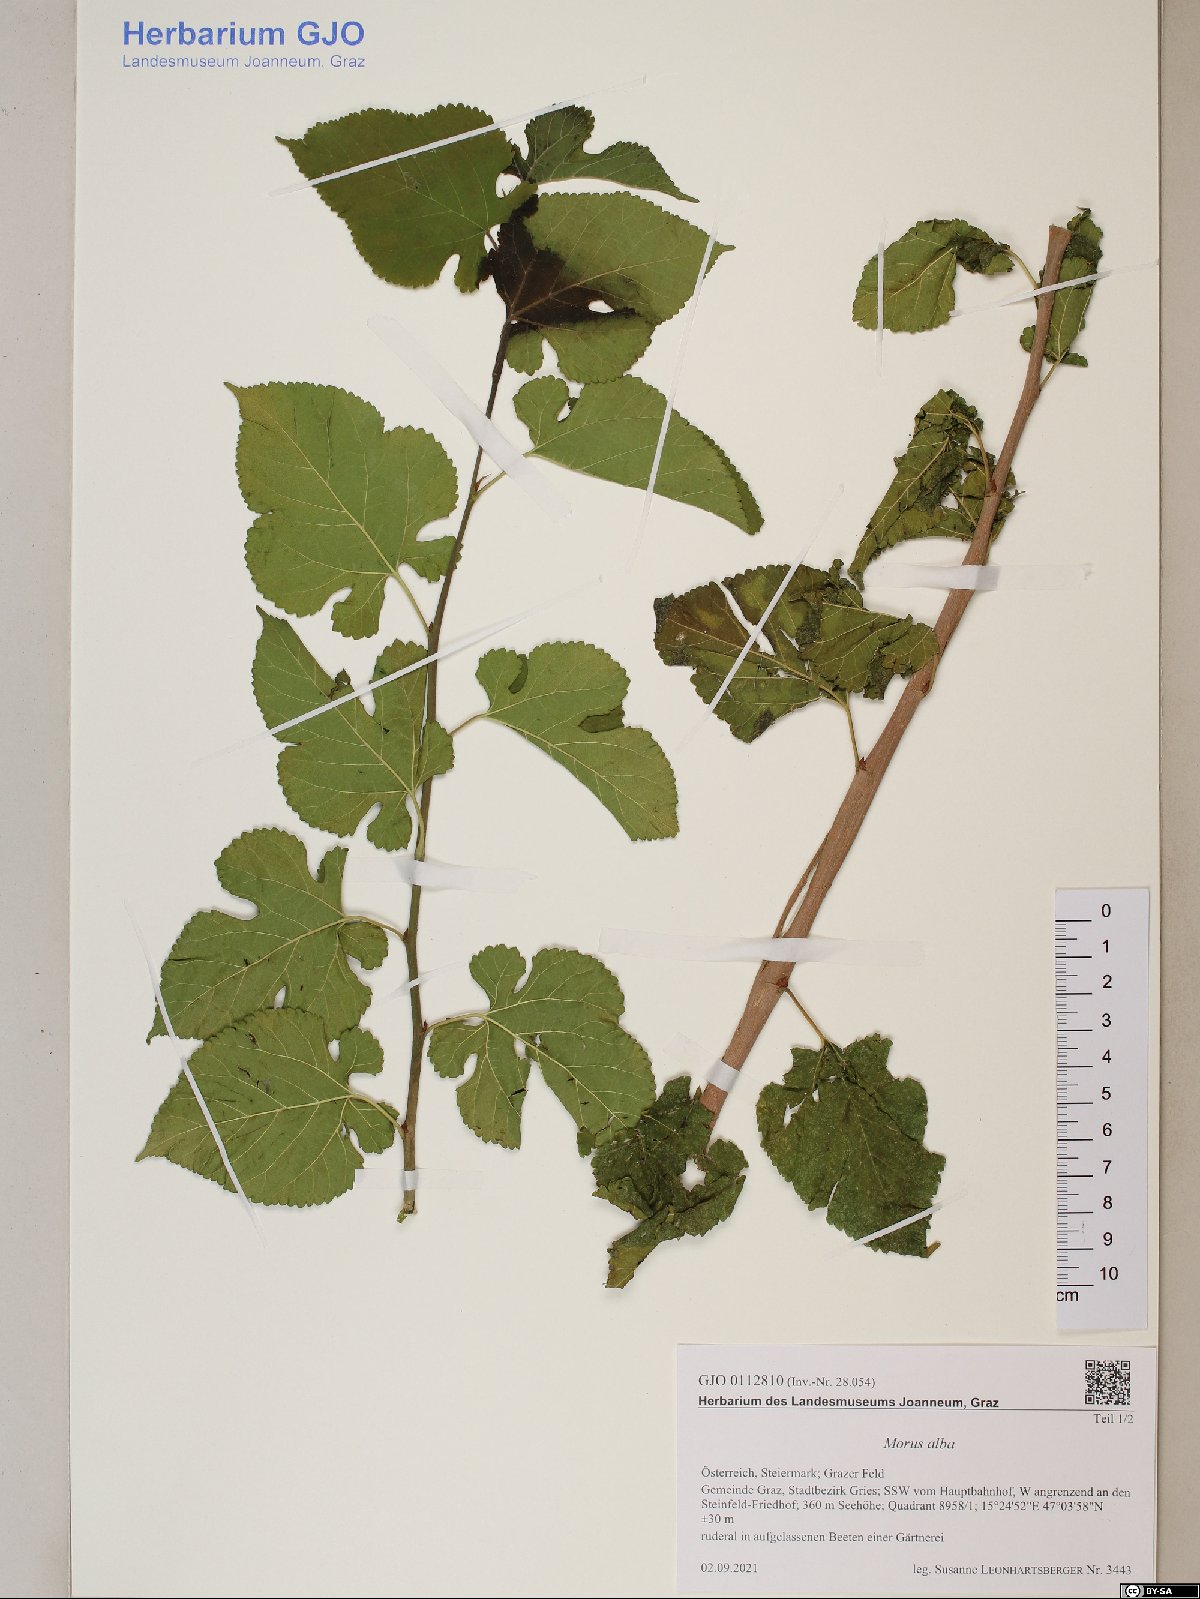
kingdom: Plantae
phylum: Tracheophyta
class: Magnoliopsida
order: Rosales
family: Moraceae
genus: Morus
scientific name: Morus alba
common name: White mulberry
